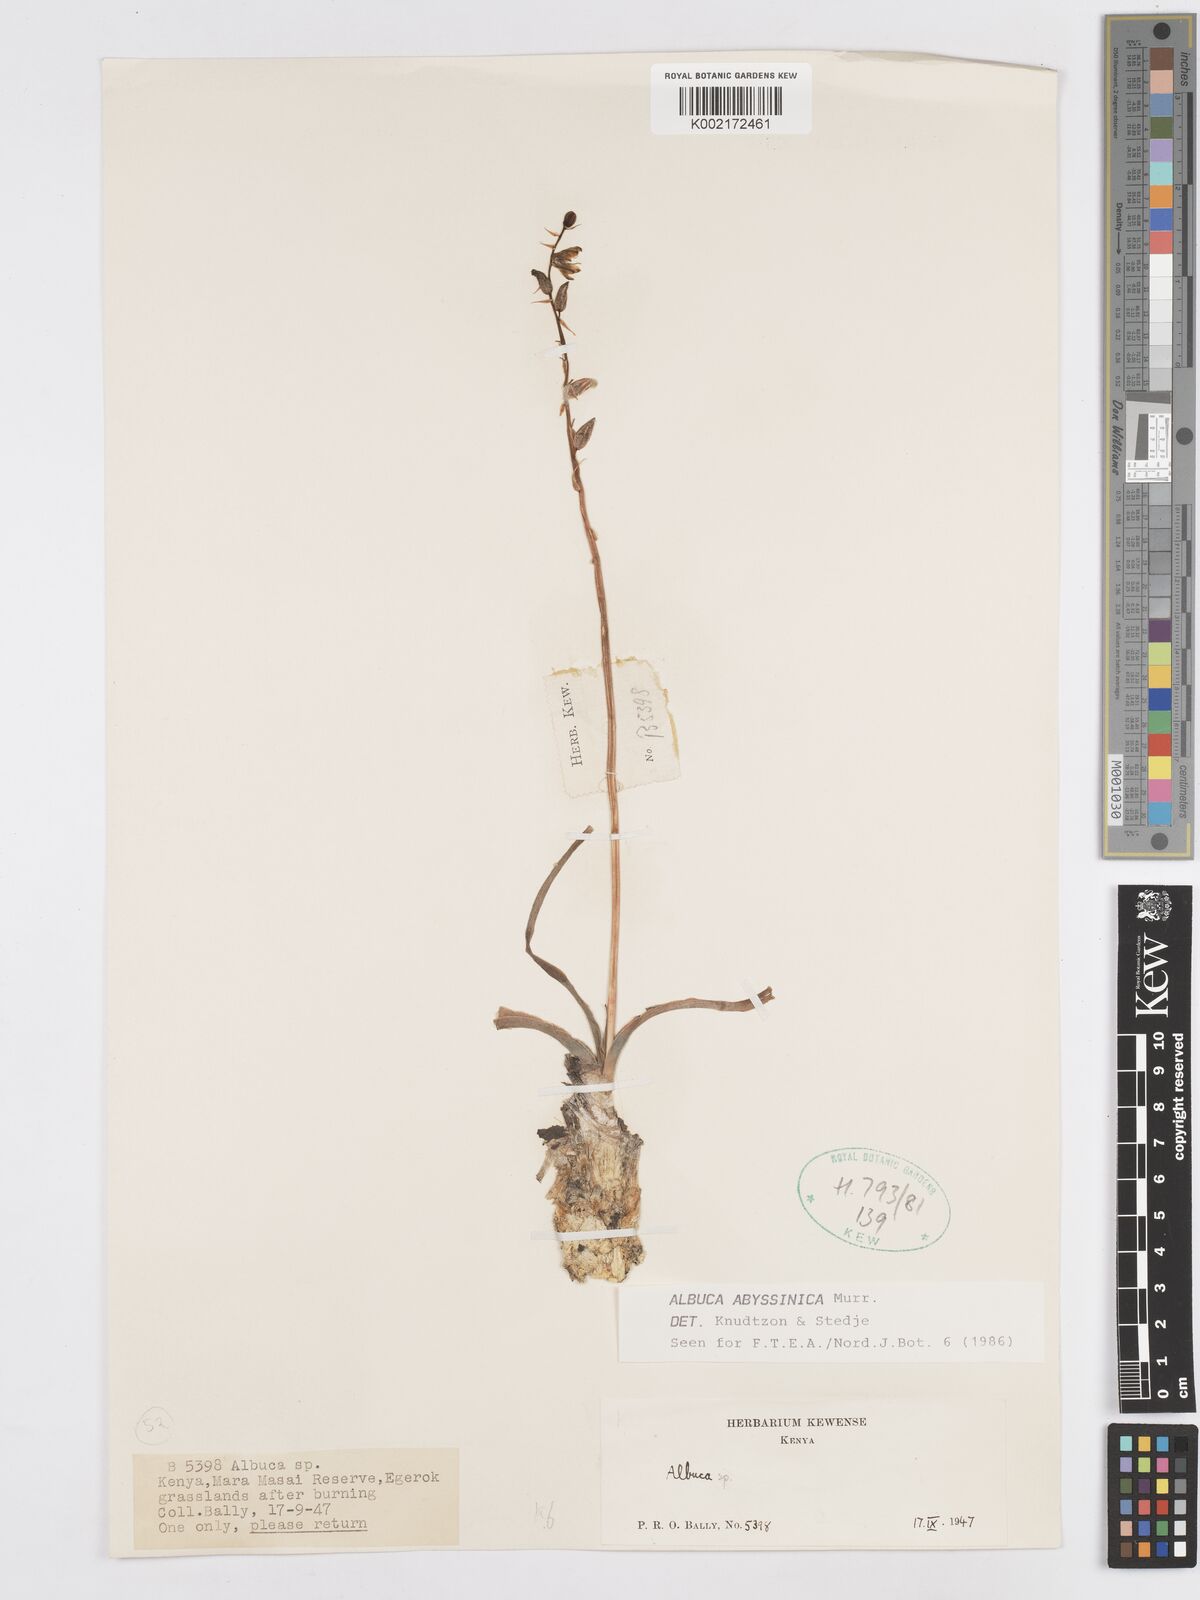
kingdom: Plantae
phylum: Tracheophyta
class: Liliopsida
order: Asparagales
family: Asparagaceae
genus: Albuca
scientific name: Albuca abyssinica
